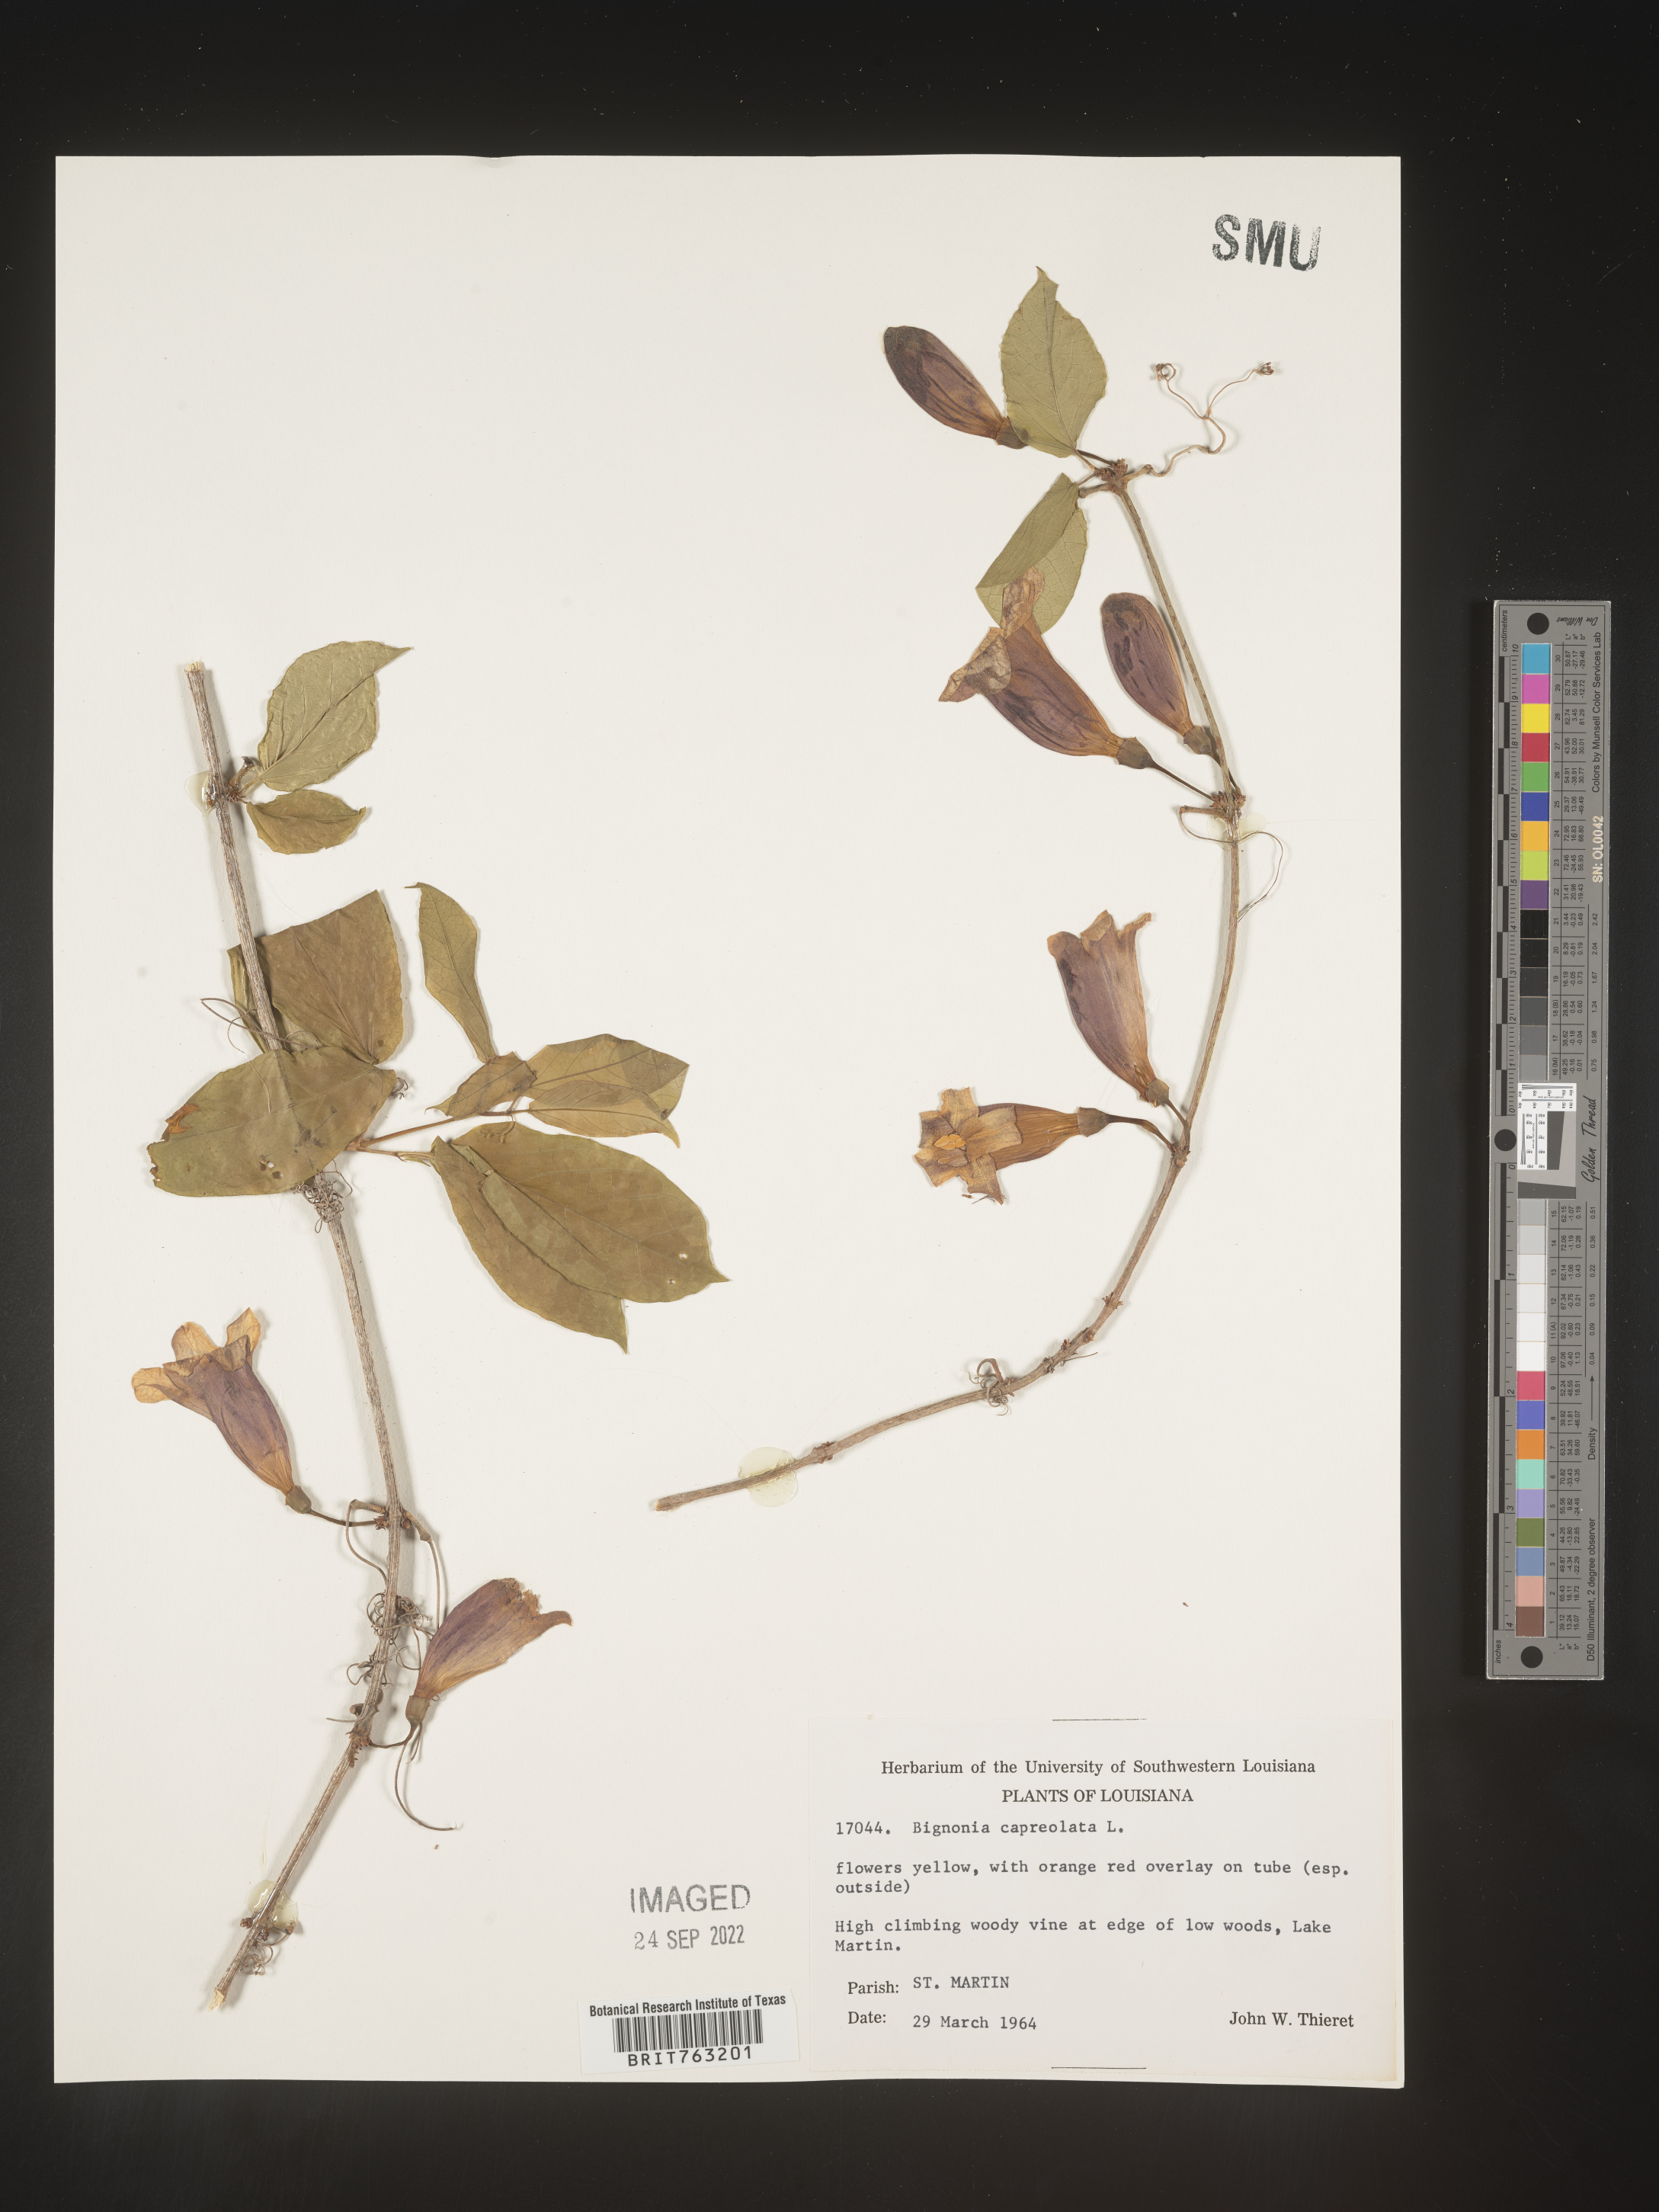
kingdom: Plantae
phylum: Tracheophyta
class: Magnoliopsida
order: Lamiales
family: Bignoniaceae
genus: Bignonia
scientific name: Bignonia capreolata
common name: Crossvine
